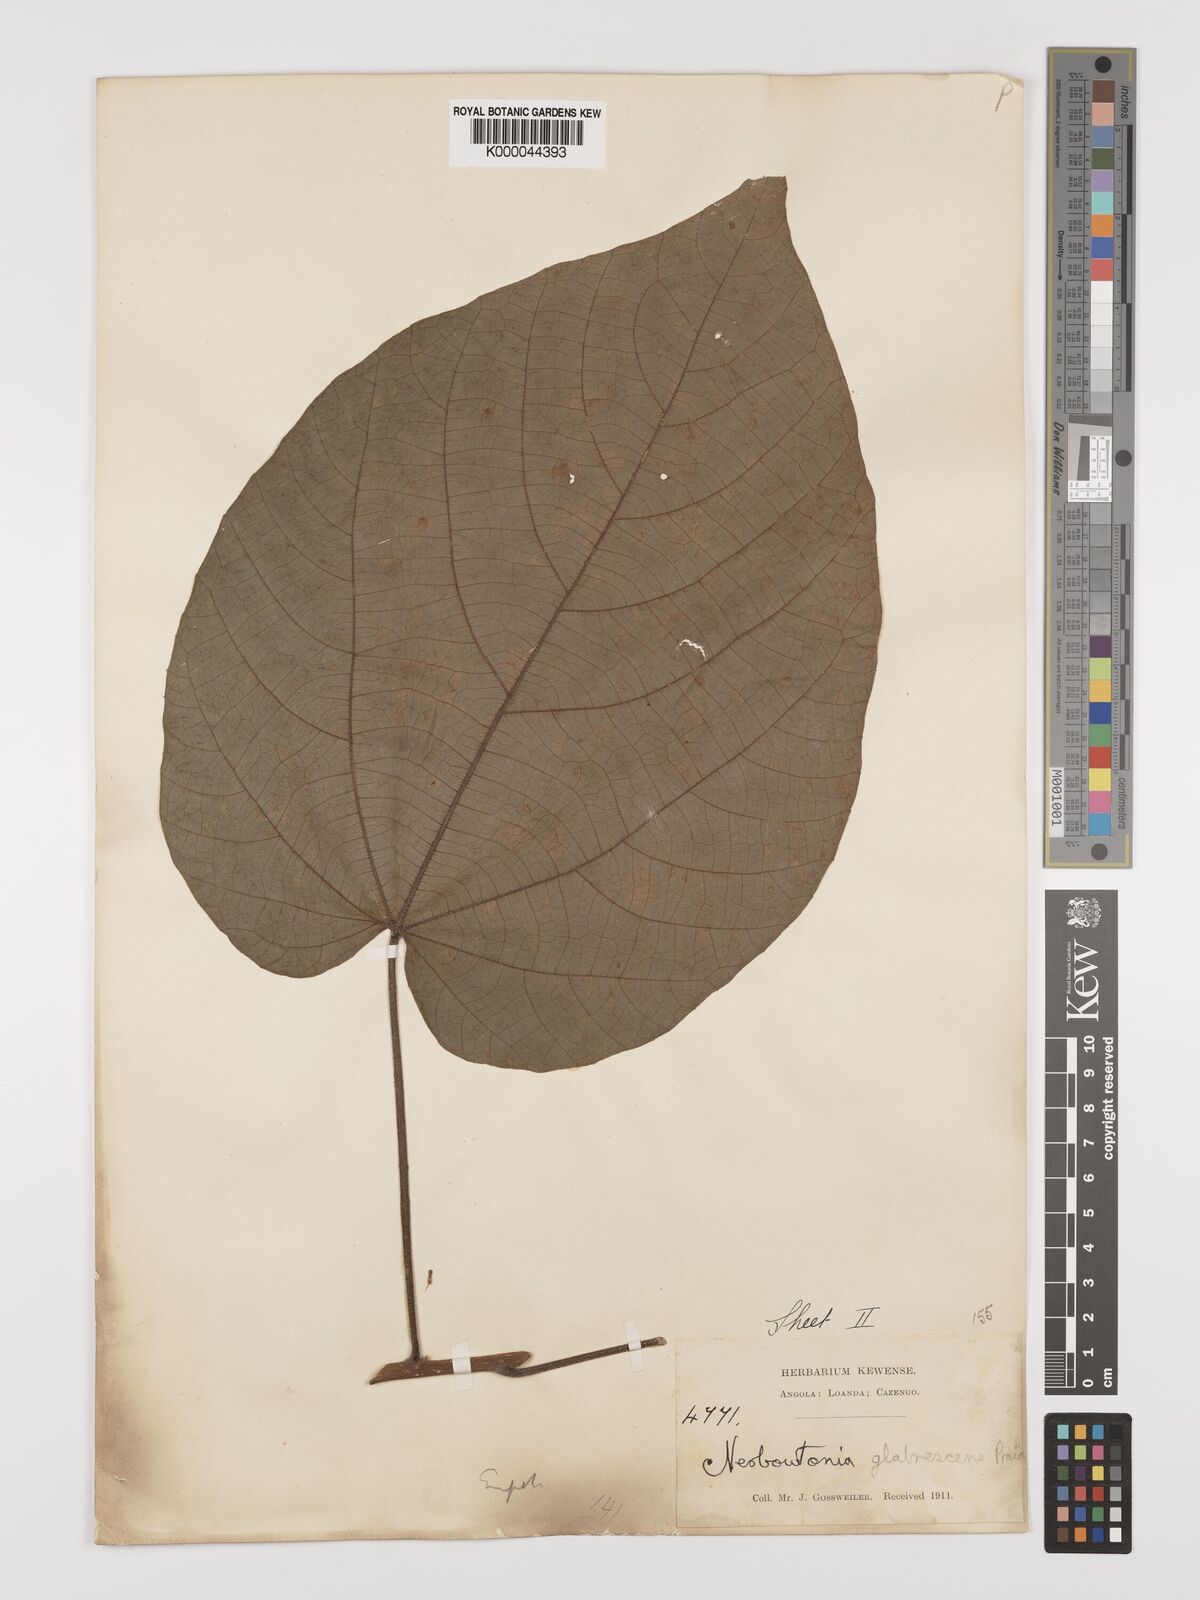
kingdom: Plantae
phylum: Tracheophyta
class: Magnoliopsida
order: Malpighiales
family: Euphorbiaceae
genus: Neoboutonia
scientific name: Neoboutonia mannii
